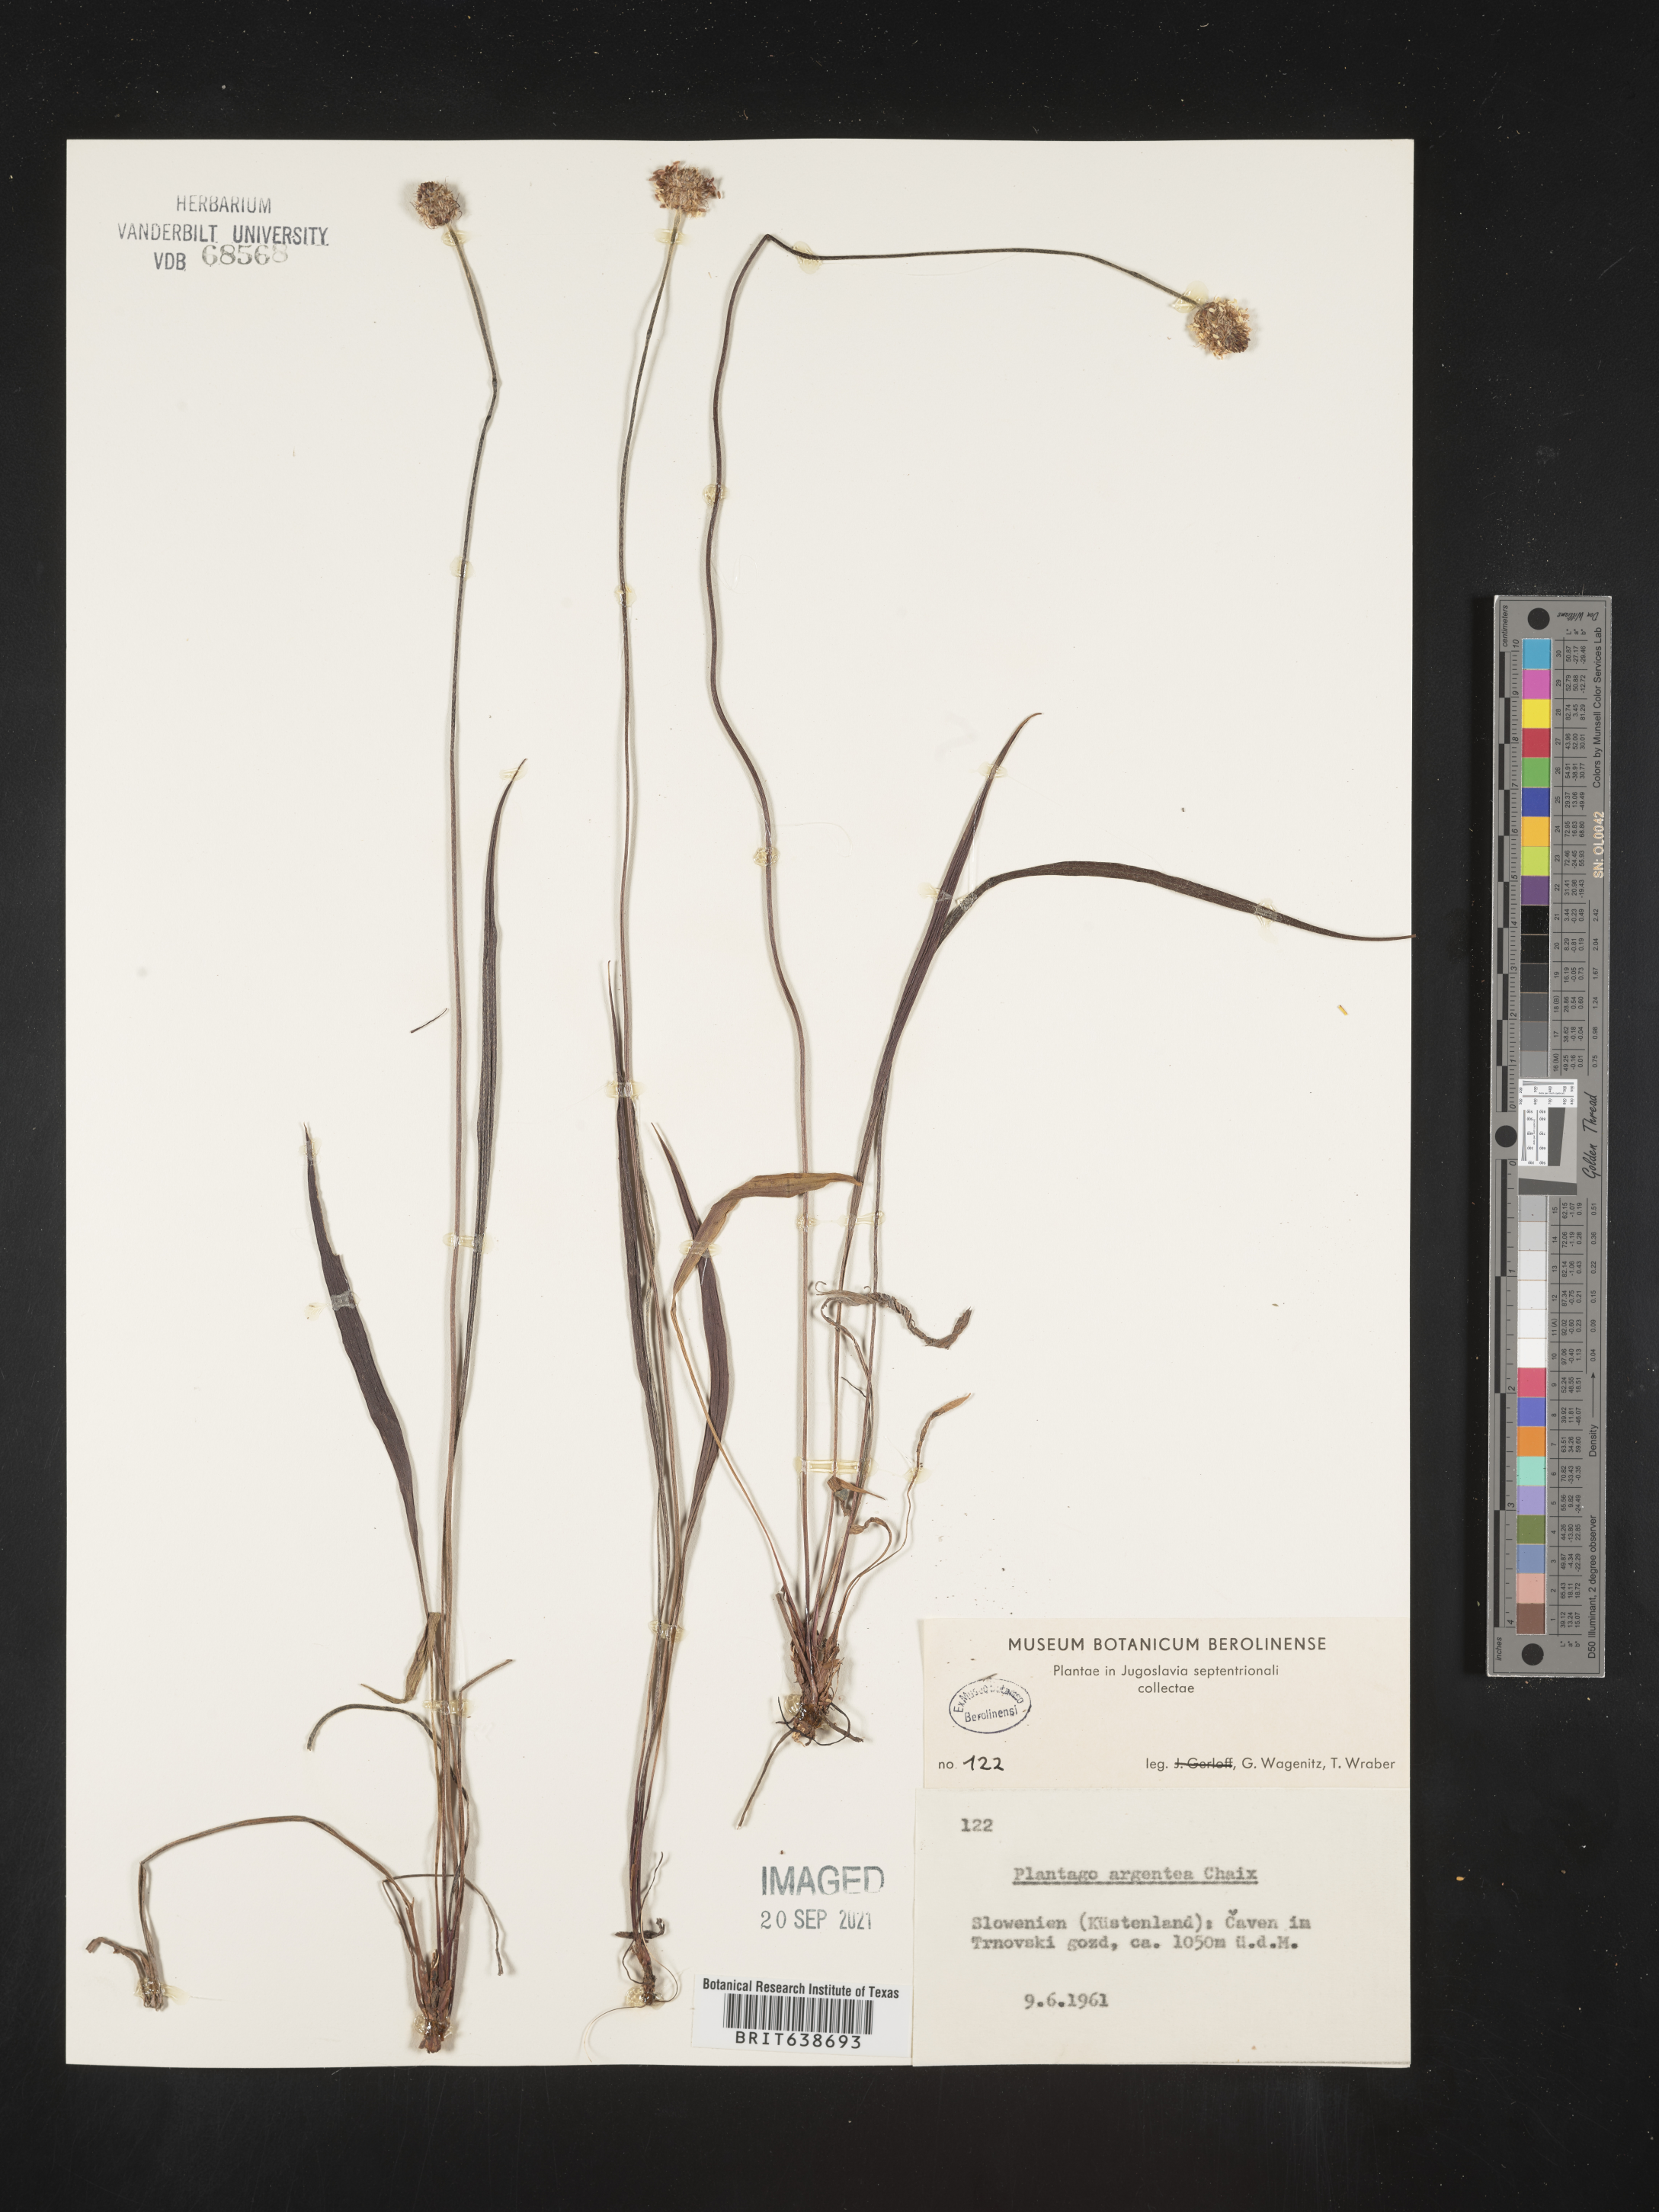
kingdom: Plantae
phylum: Tracheophyta
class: Magnoliopsida
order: Lamiales
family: Plantaginaceae
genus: Plantago
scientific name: Plantago
